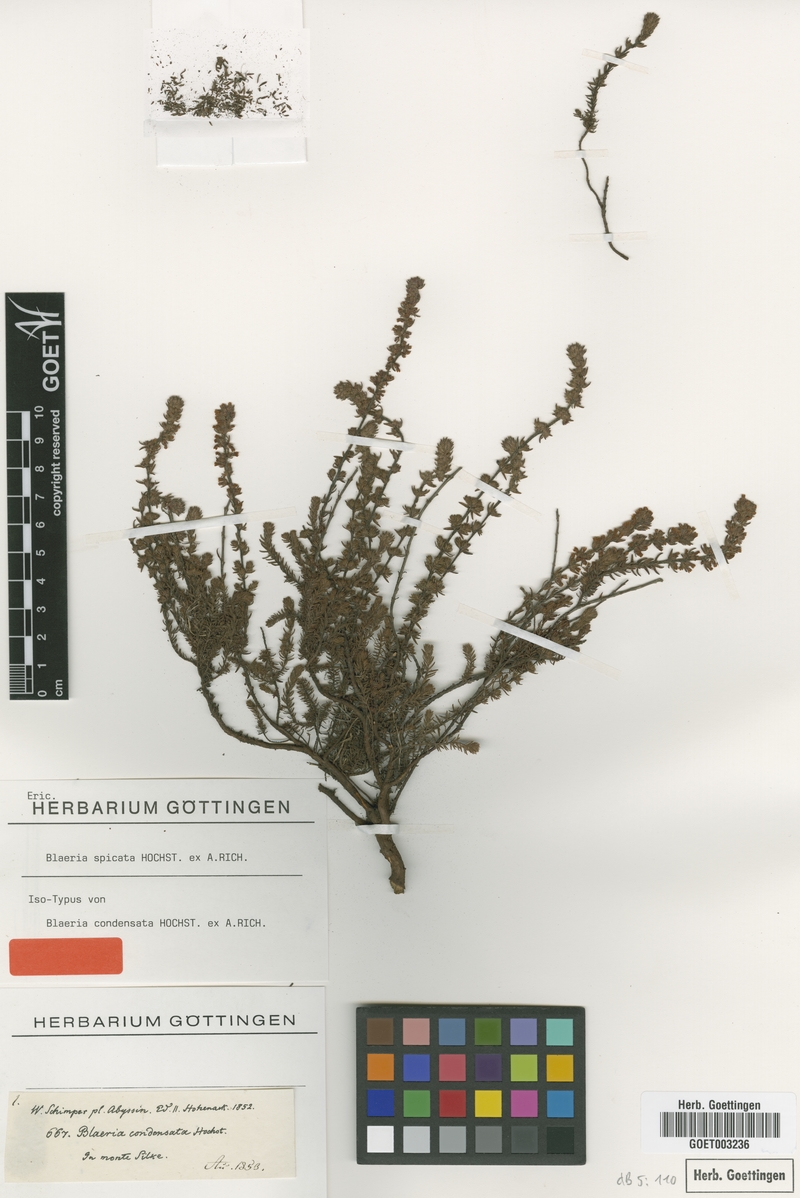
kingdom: Plantae
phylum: Tracheophyta
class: Magnoliopsida
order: Ericales
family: Ericaceae
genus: Erica
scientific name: Erica silvatica
